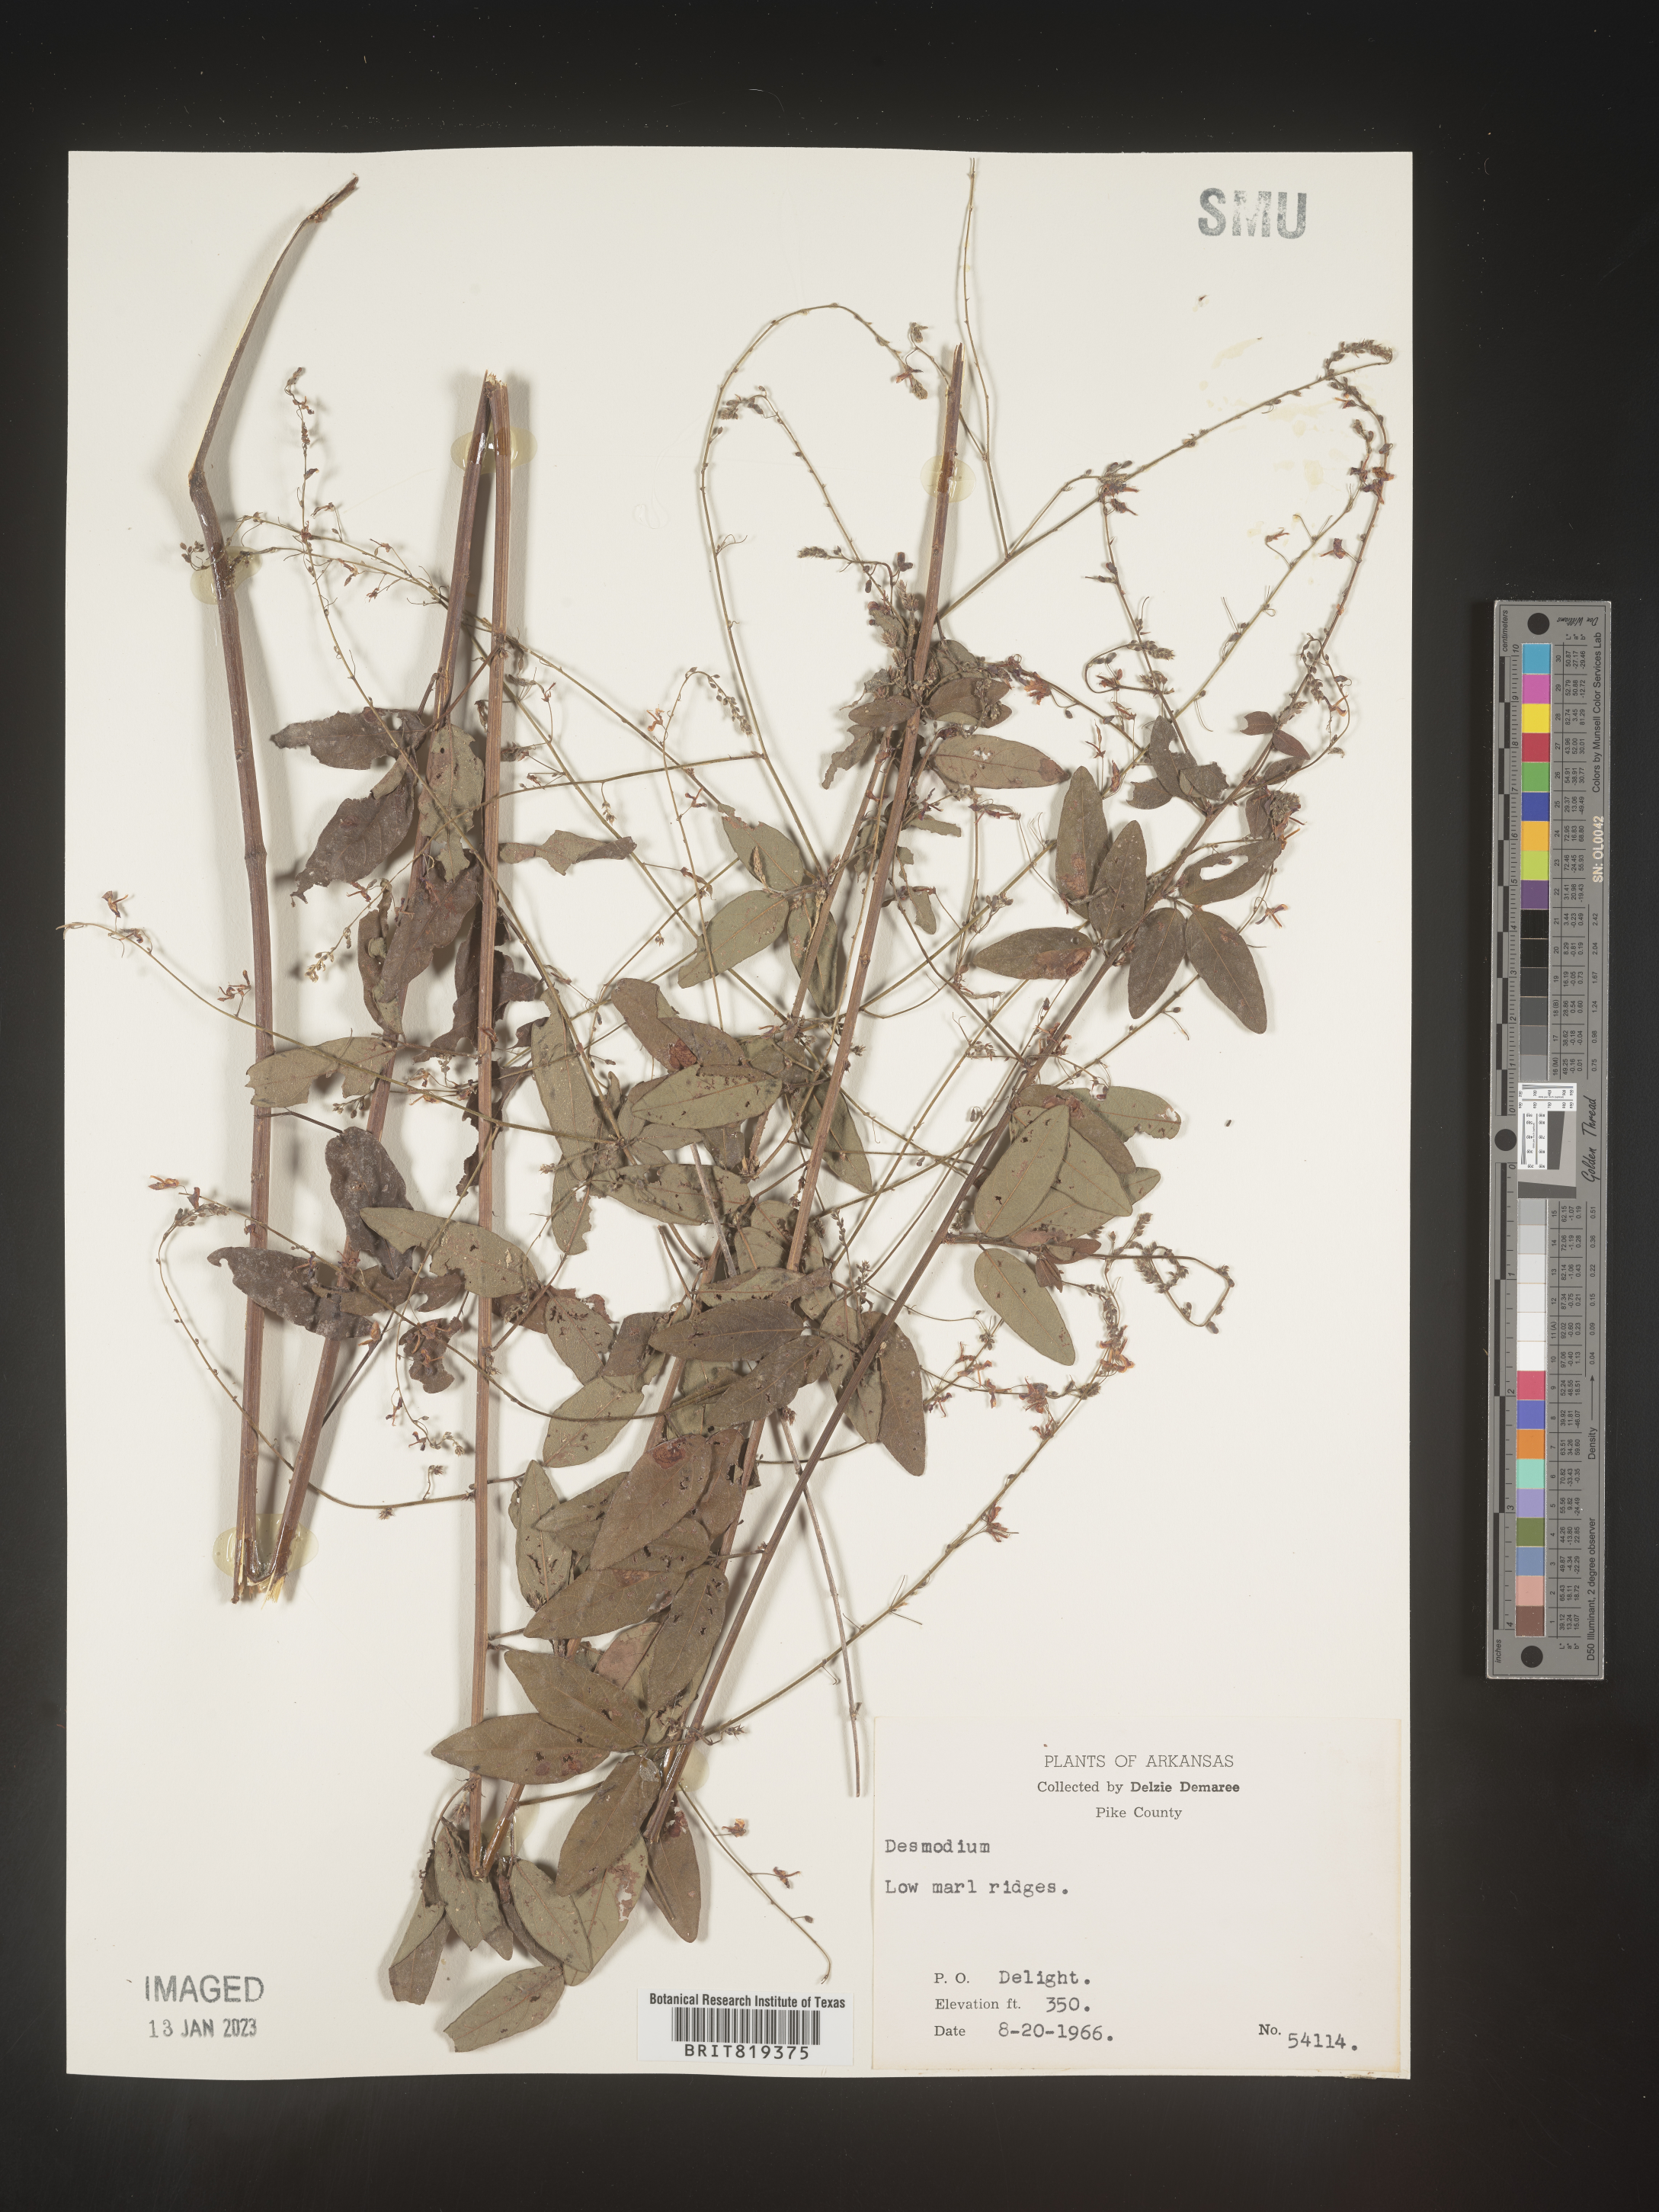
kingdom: Plantae
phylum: Tracheophyta
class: Magnoliopsida
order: Fabales
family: Fabaceae
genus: Desmodium
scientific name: Desmodium paniculatum
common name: Panicled tick-clover
